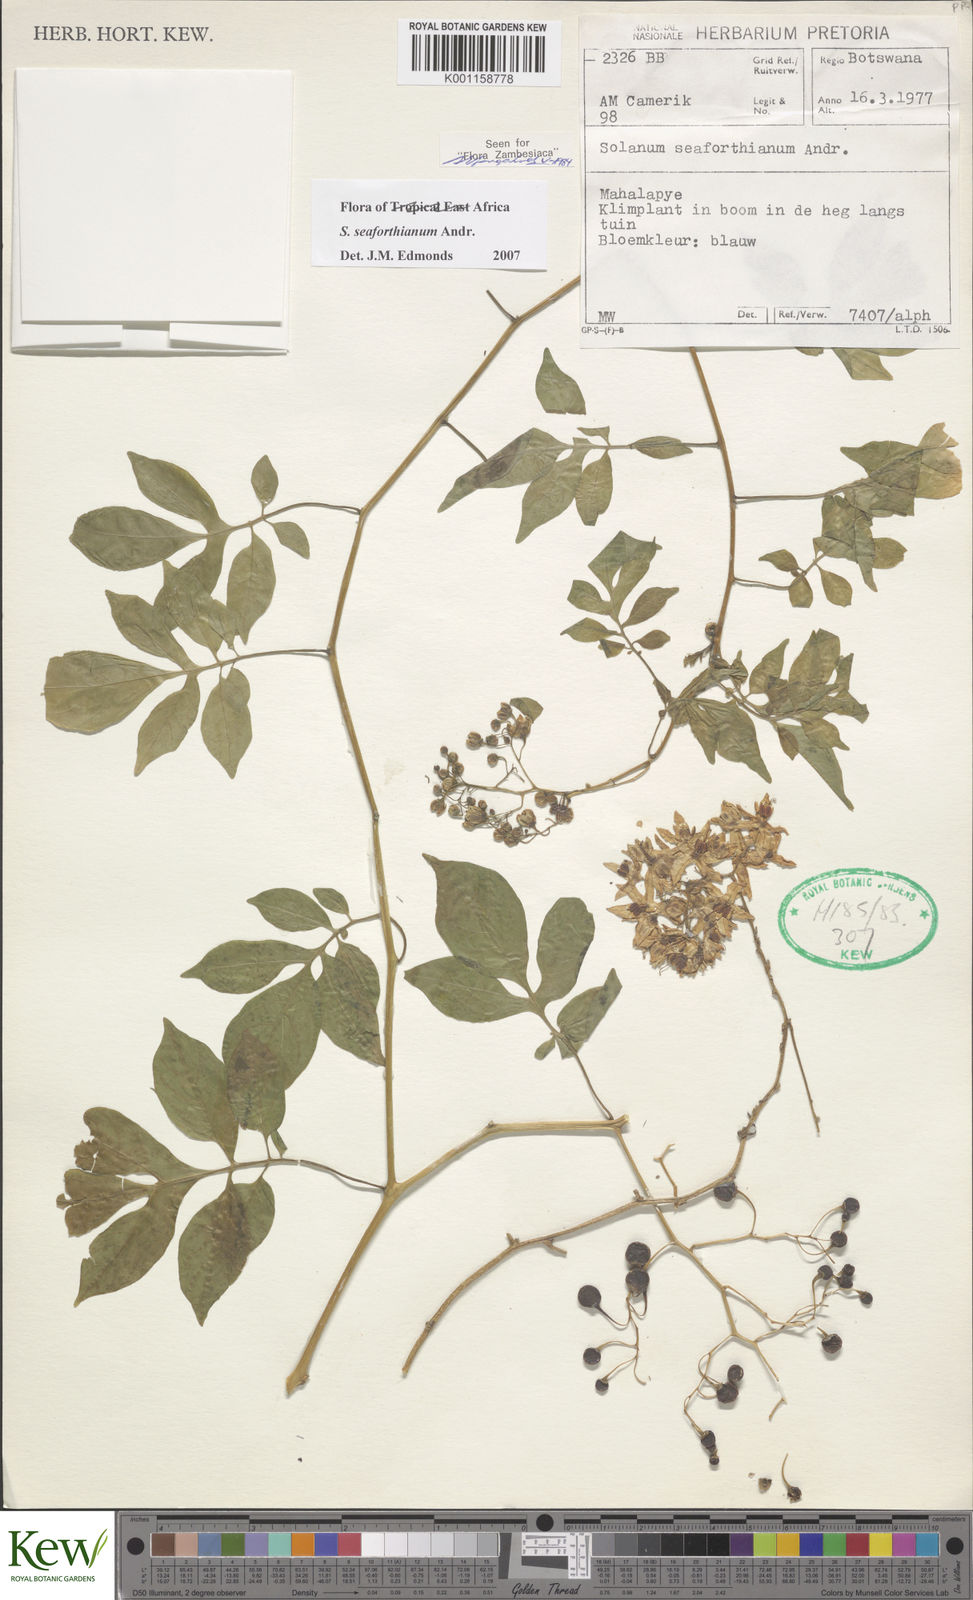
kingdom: Plantae
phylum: Tracheophyta
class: Magnoliopsida
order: Solanales
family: Solanaceae
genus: Solanum
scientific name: Solanum seaforthianum
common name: Brazilian nightshade
